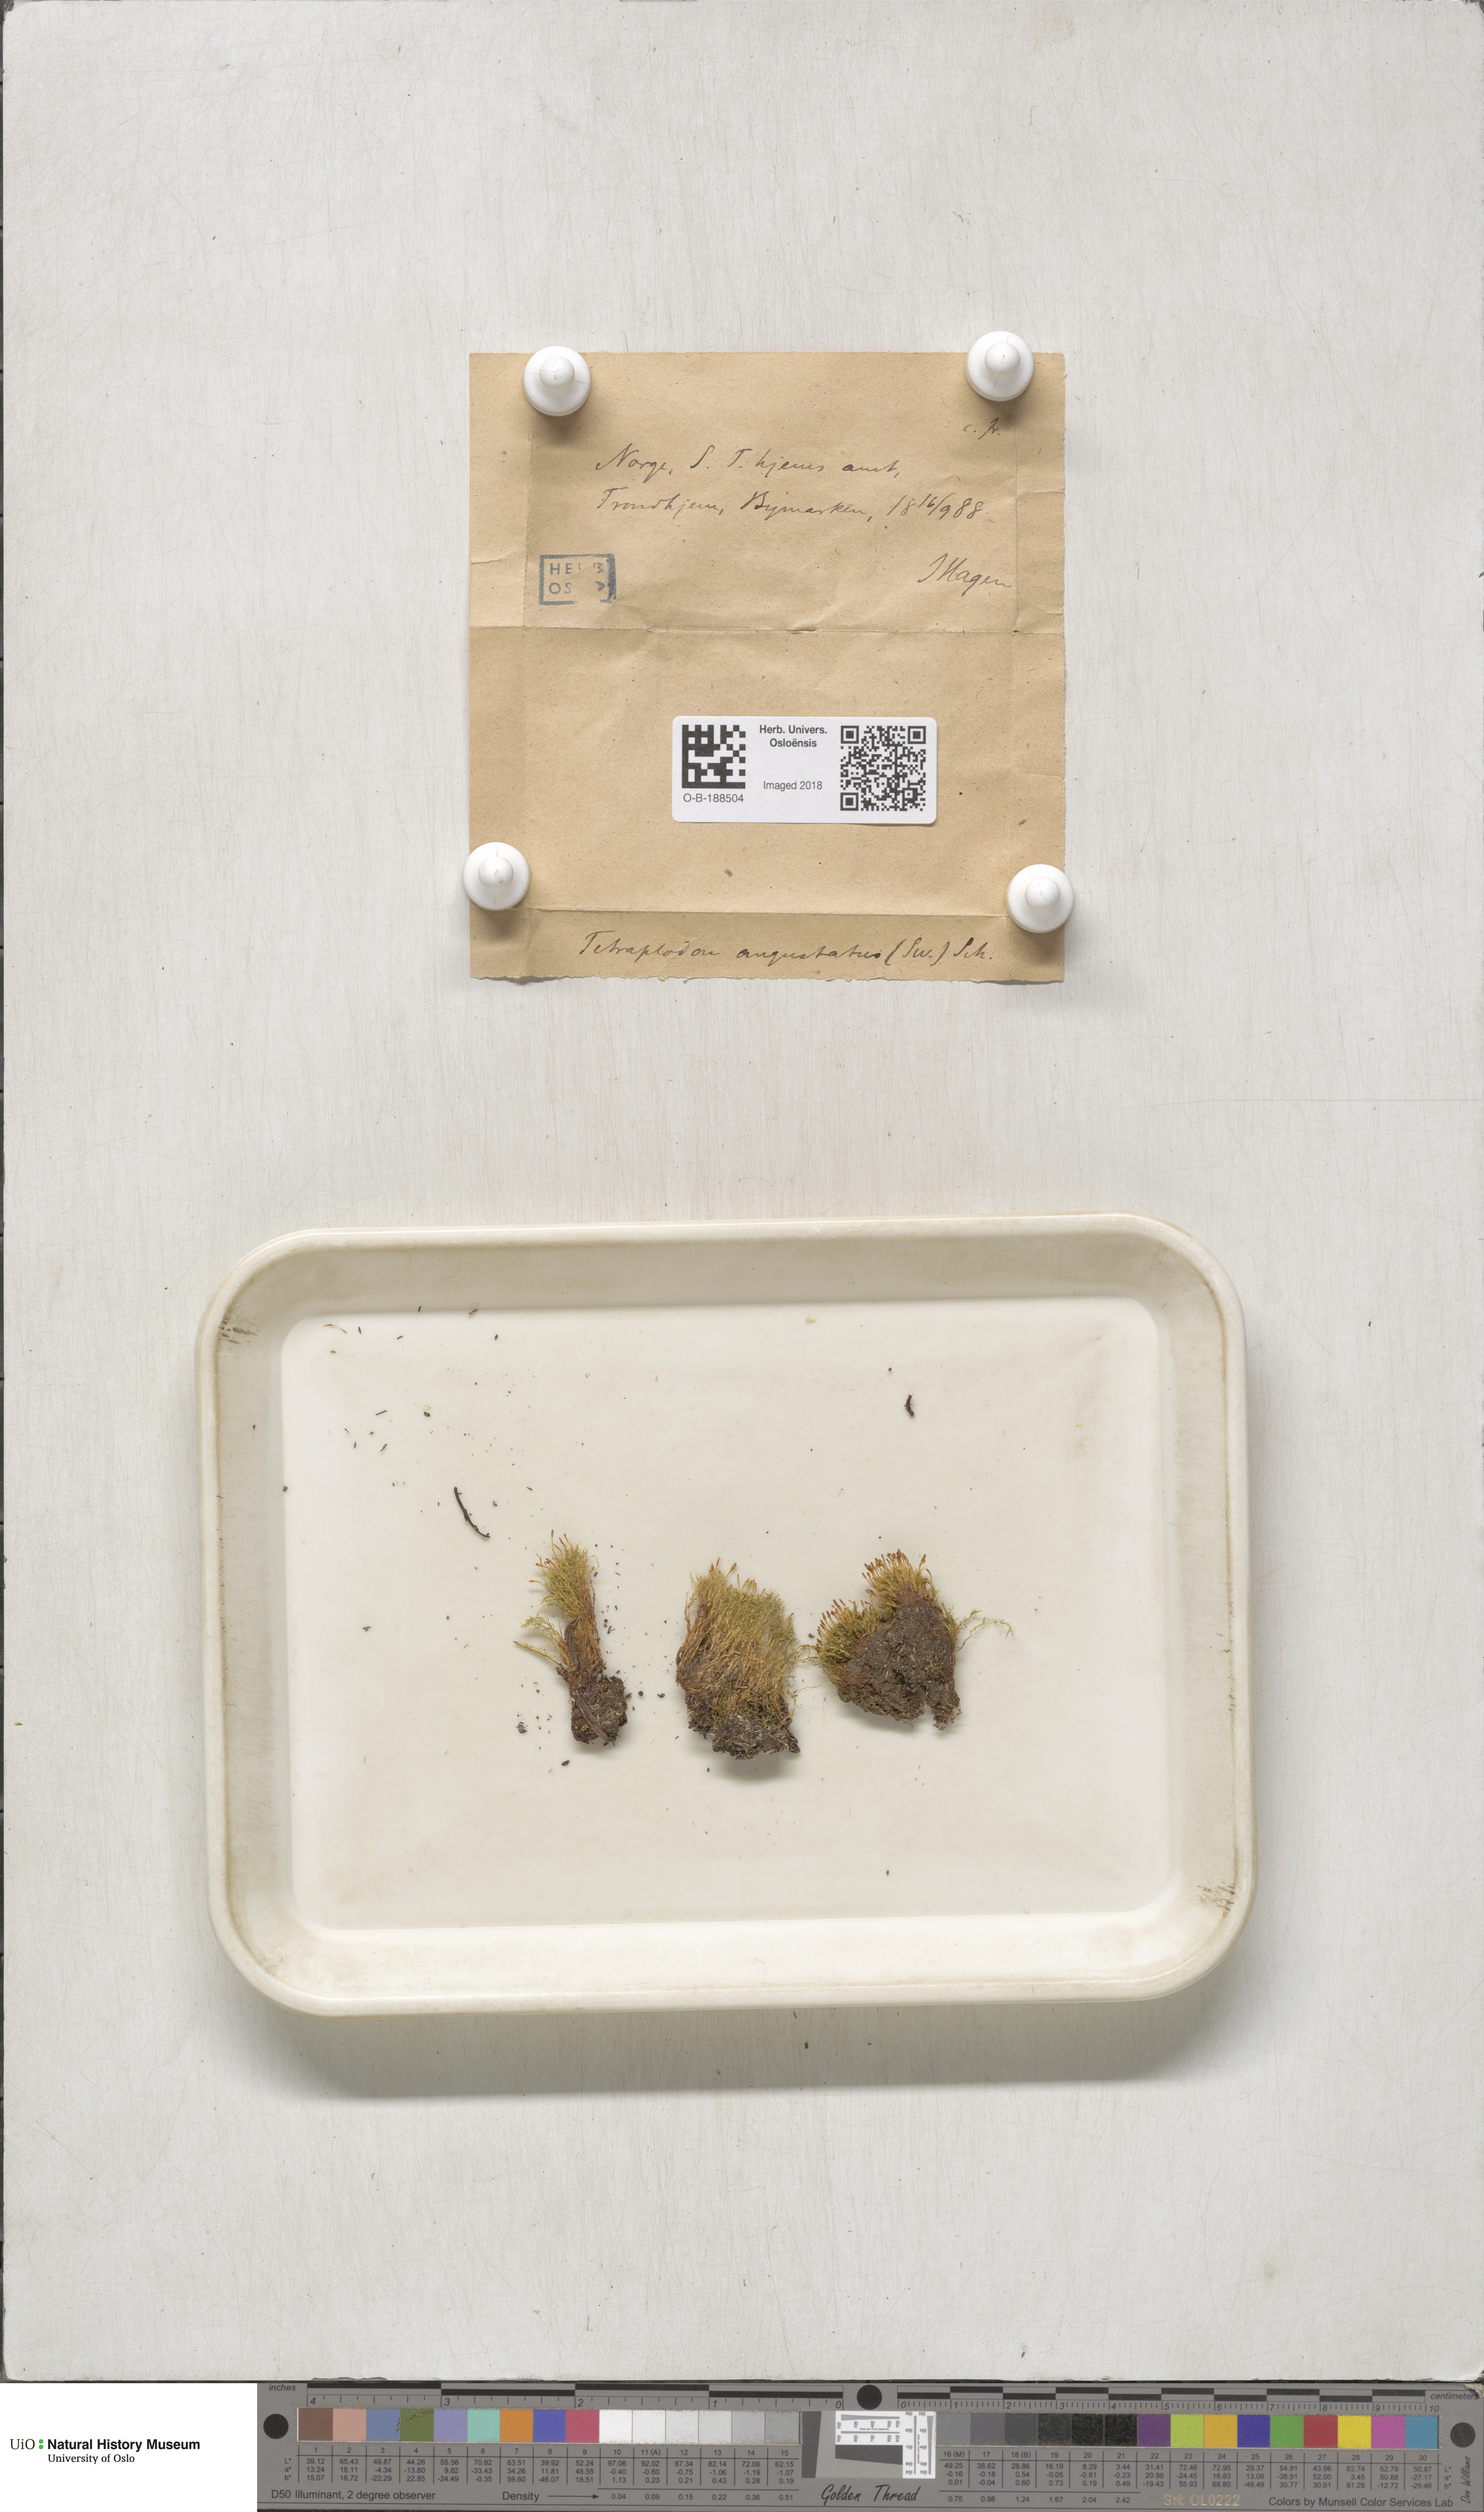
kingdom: Plantae
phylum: Bryophyta
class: Bryopsida
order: Splachnales
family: Splachnaceae
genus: Tetraplodon
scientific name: Tetraplodon angustatus
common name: Narrow cruet-moss
